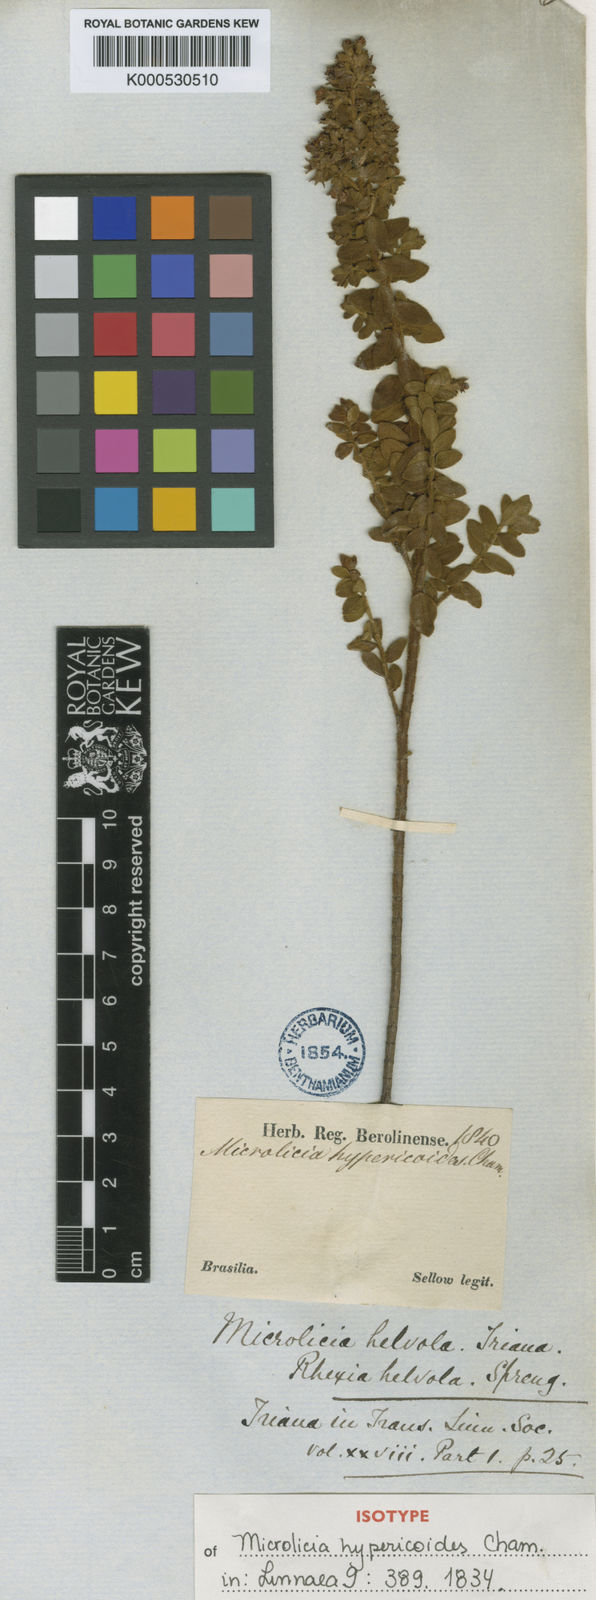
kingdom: Plantae
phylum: Tracheophyta
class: Magnoliopsida
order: Myrtales
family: Melastomataceae
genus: Microlicia
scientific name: Microlicia helvola
